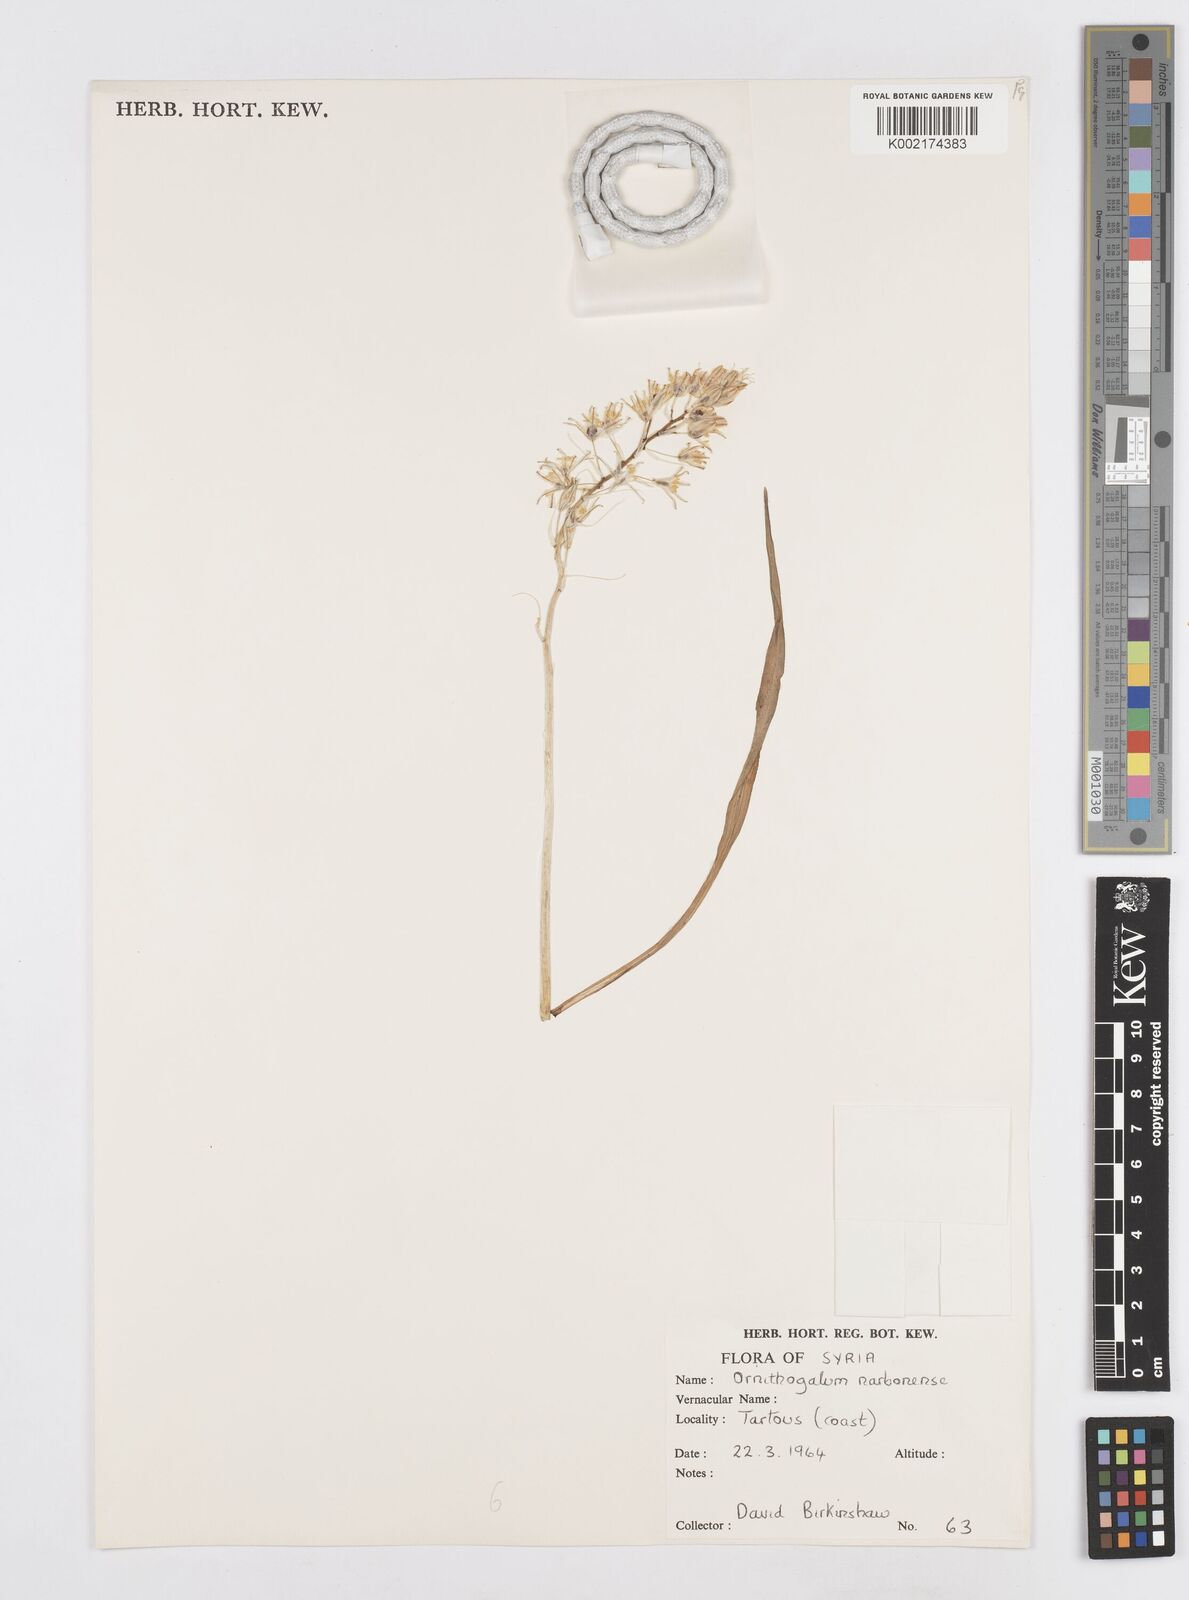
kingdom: Plantae
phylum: Tracheophyta
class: Liliopsida
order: Asparagales
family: Asparagaceae
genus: Ornithogalum
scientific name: Ornithogalum narbonense
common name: Bath-asparagus
